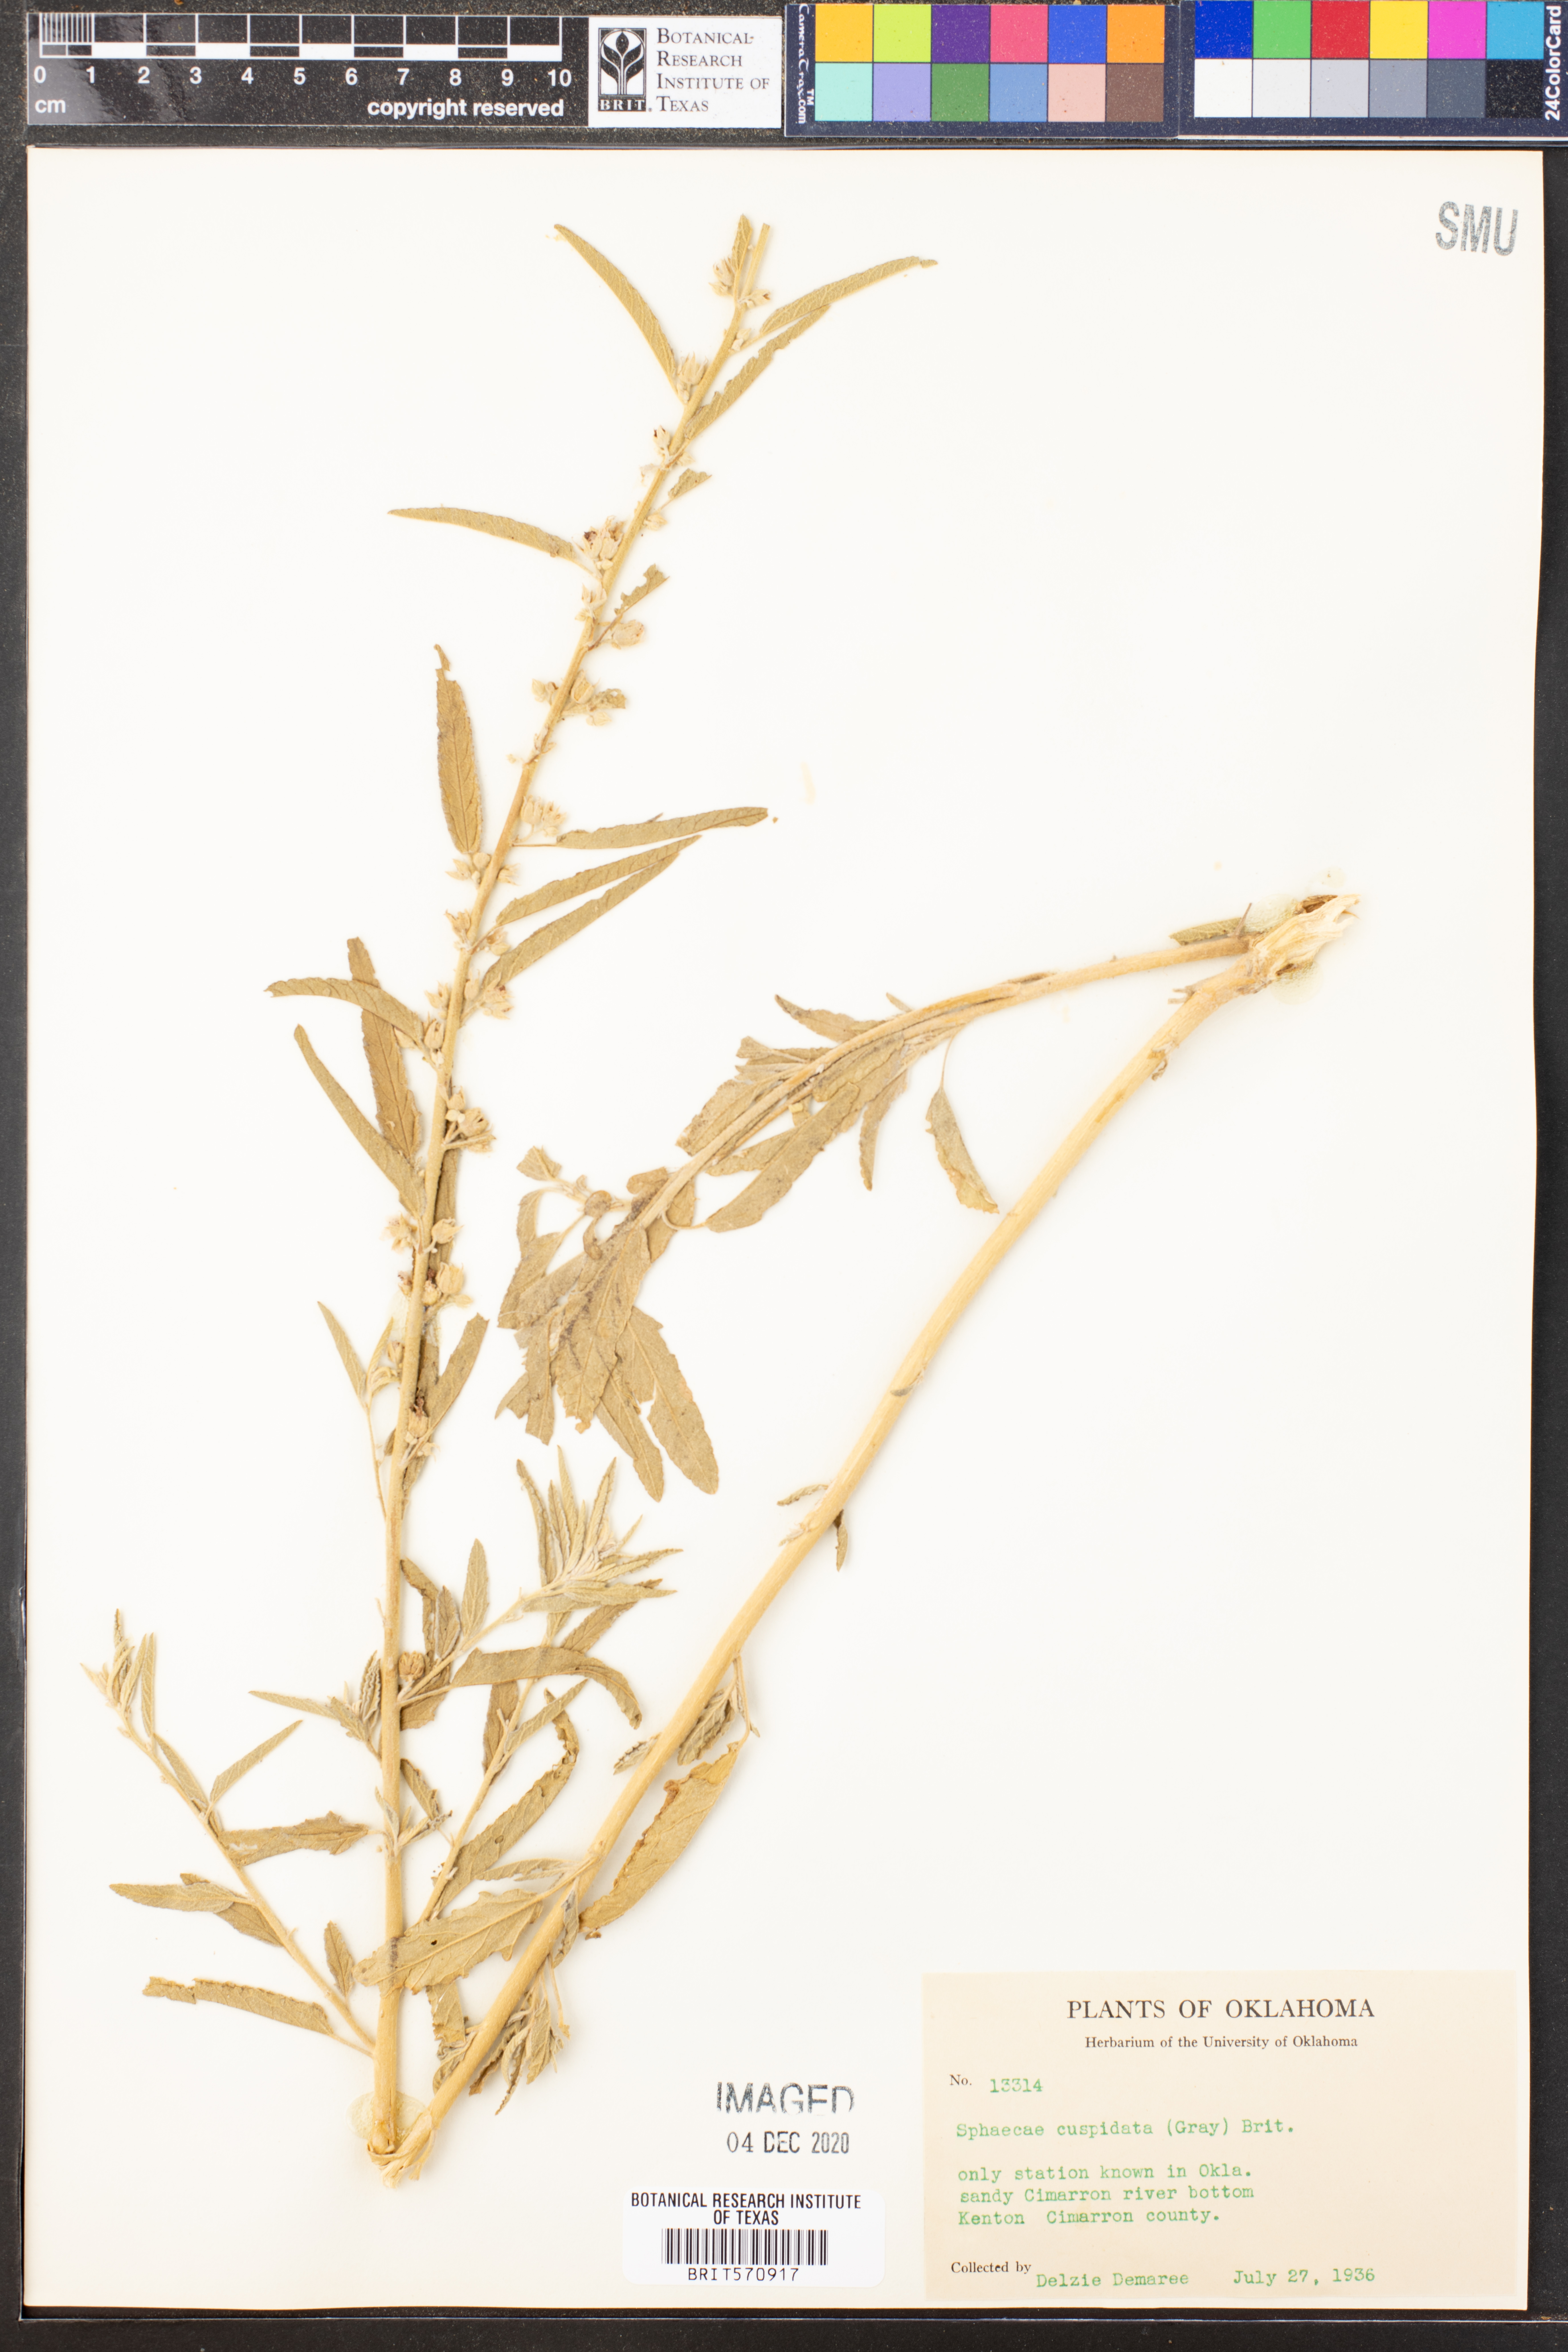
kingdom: Plantae
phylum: Tracheophyta
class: Magnoliopsida
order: Malvales
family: Malvaceae
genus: Sphaeralcea
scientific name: Sphaeralcea angustifolia
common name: Copper globe-mallow
